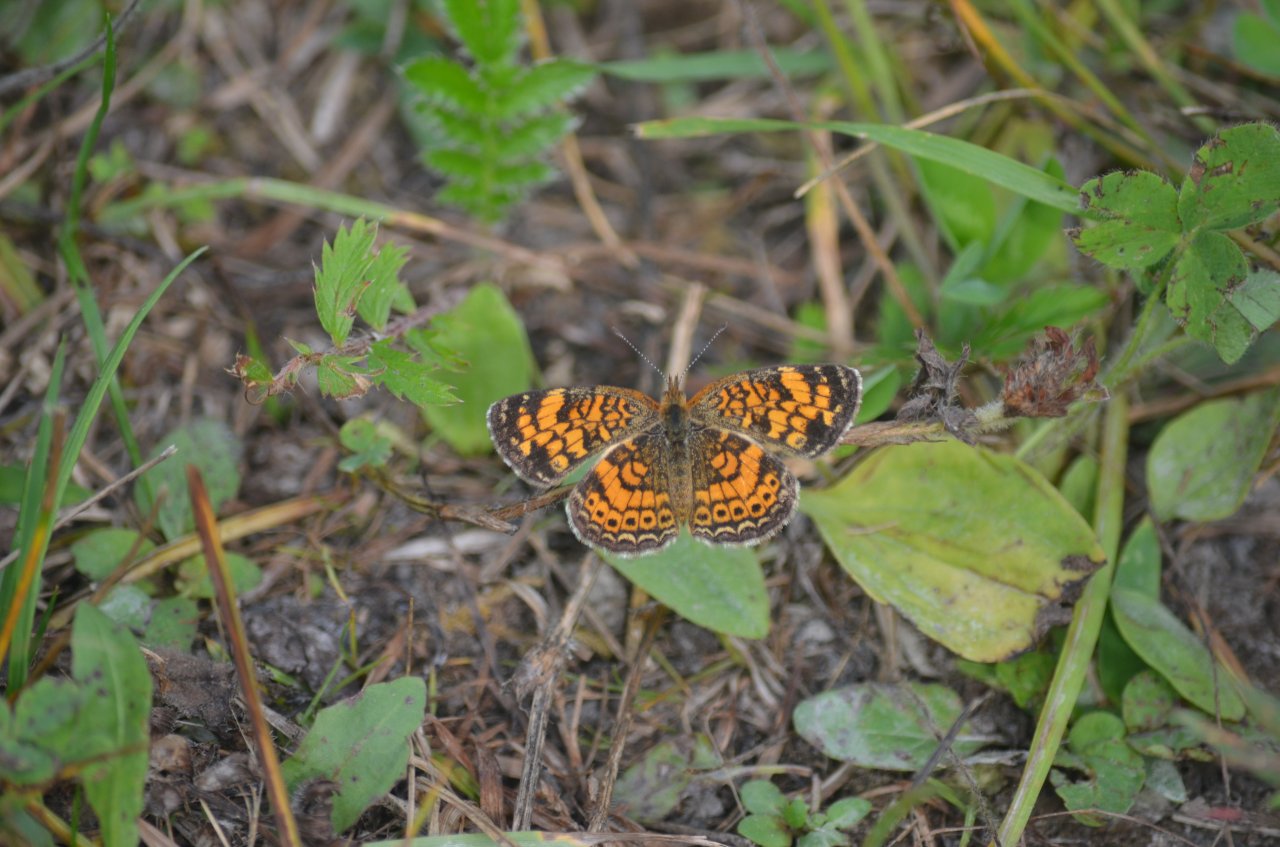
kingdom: Animalia
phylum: Arthropoda
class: Insecta
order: Lepidoptera
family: Nymphalidae
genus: Phyciodes
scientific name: Phyciodes tharos
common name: Pearl Crescent
